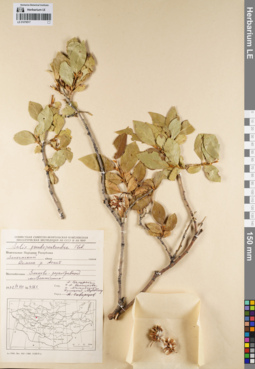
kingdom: Plantae
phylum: Tracheophyta
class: Magnoliopsida
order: Malpighiales
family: Salicaceae
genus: Salix
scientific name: Salix pseudopentandra
